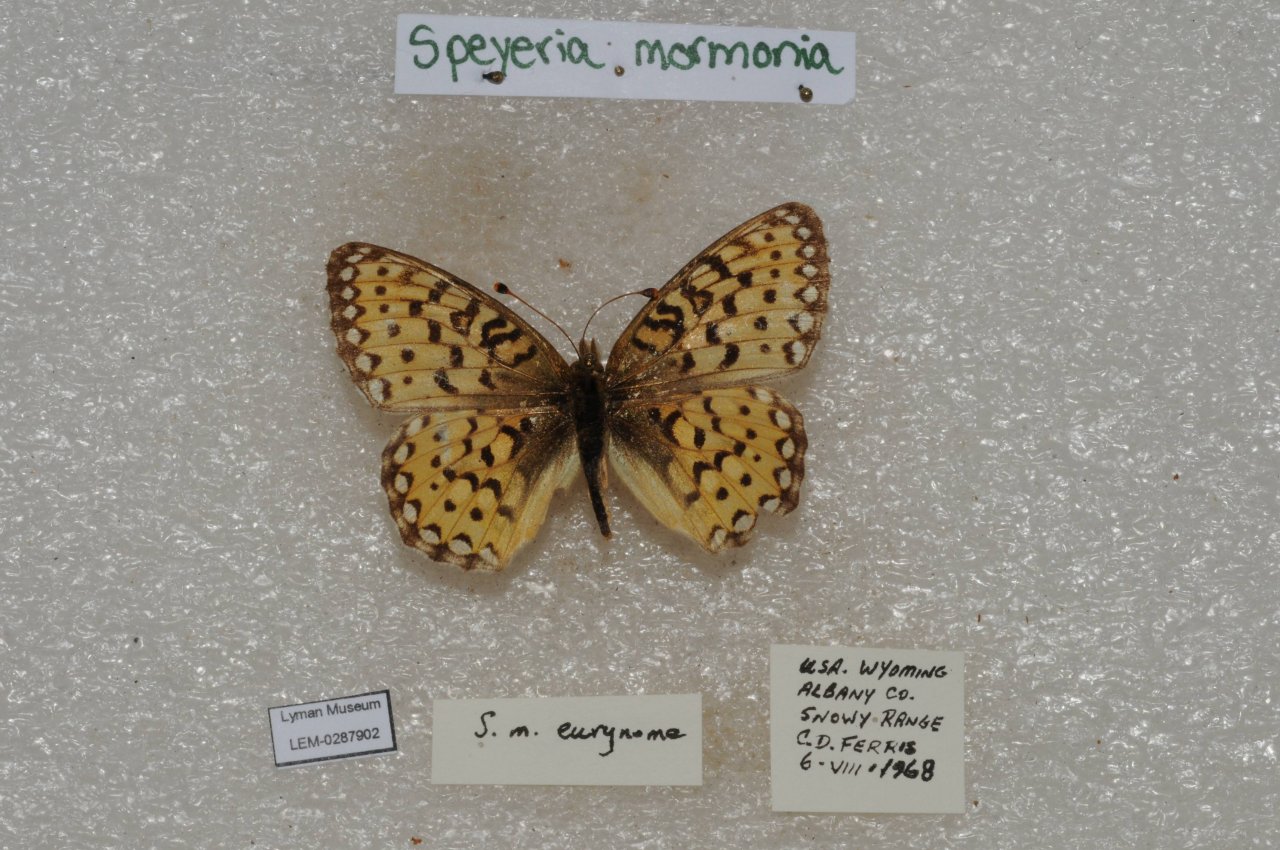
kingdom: Animalia
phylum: Arthropoda
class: Insecta
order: Lepidoptera
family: Nymphalidae
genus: Speyeria
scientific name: Speyeria mormonia
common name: Mormon Fritillary
